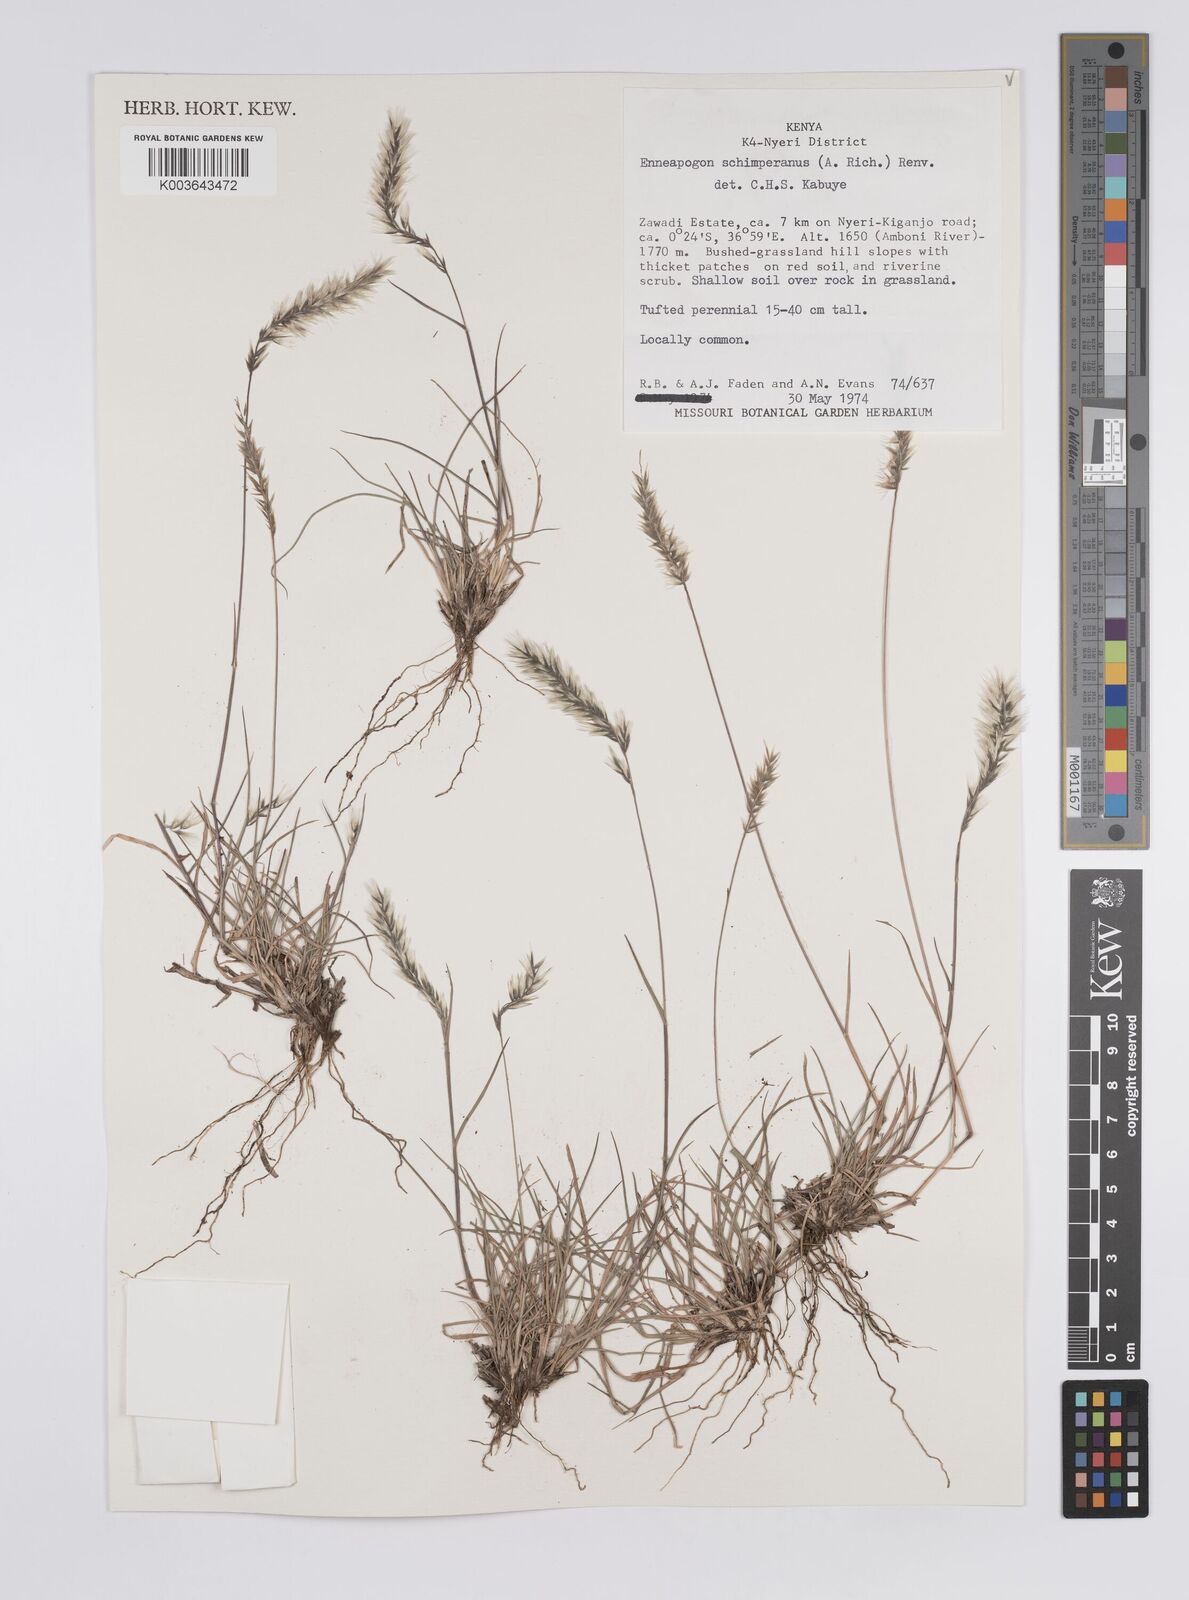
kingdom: Plantae
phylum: Tracheophyta
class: Liliopsida
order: Poales
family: Poaceae
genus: Enneapogon
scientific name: Enneapogon persicus
